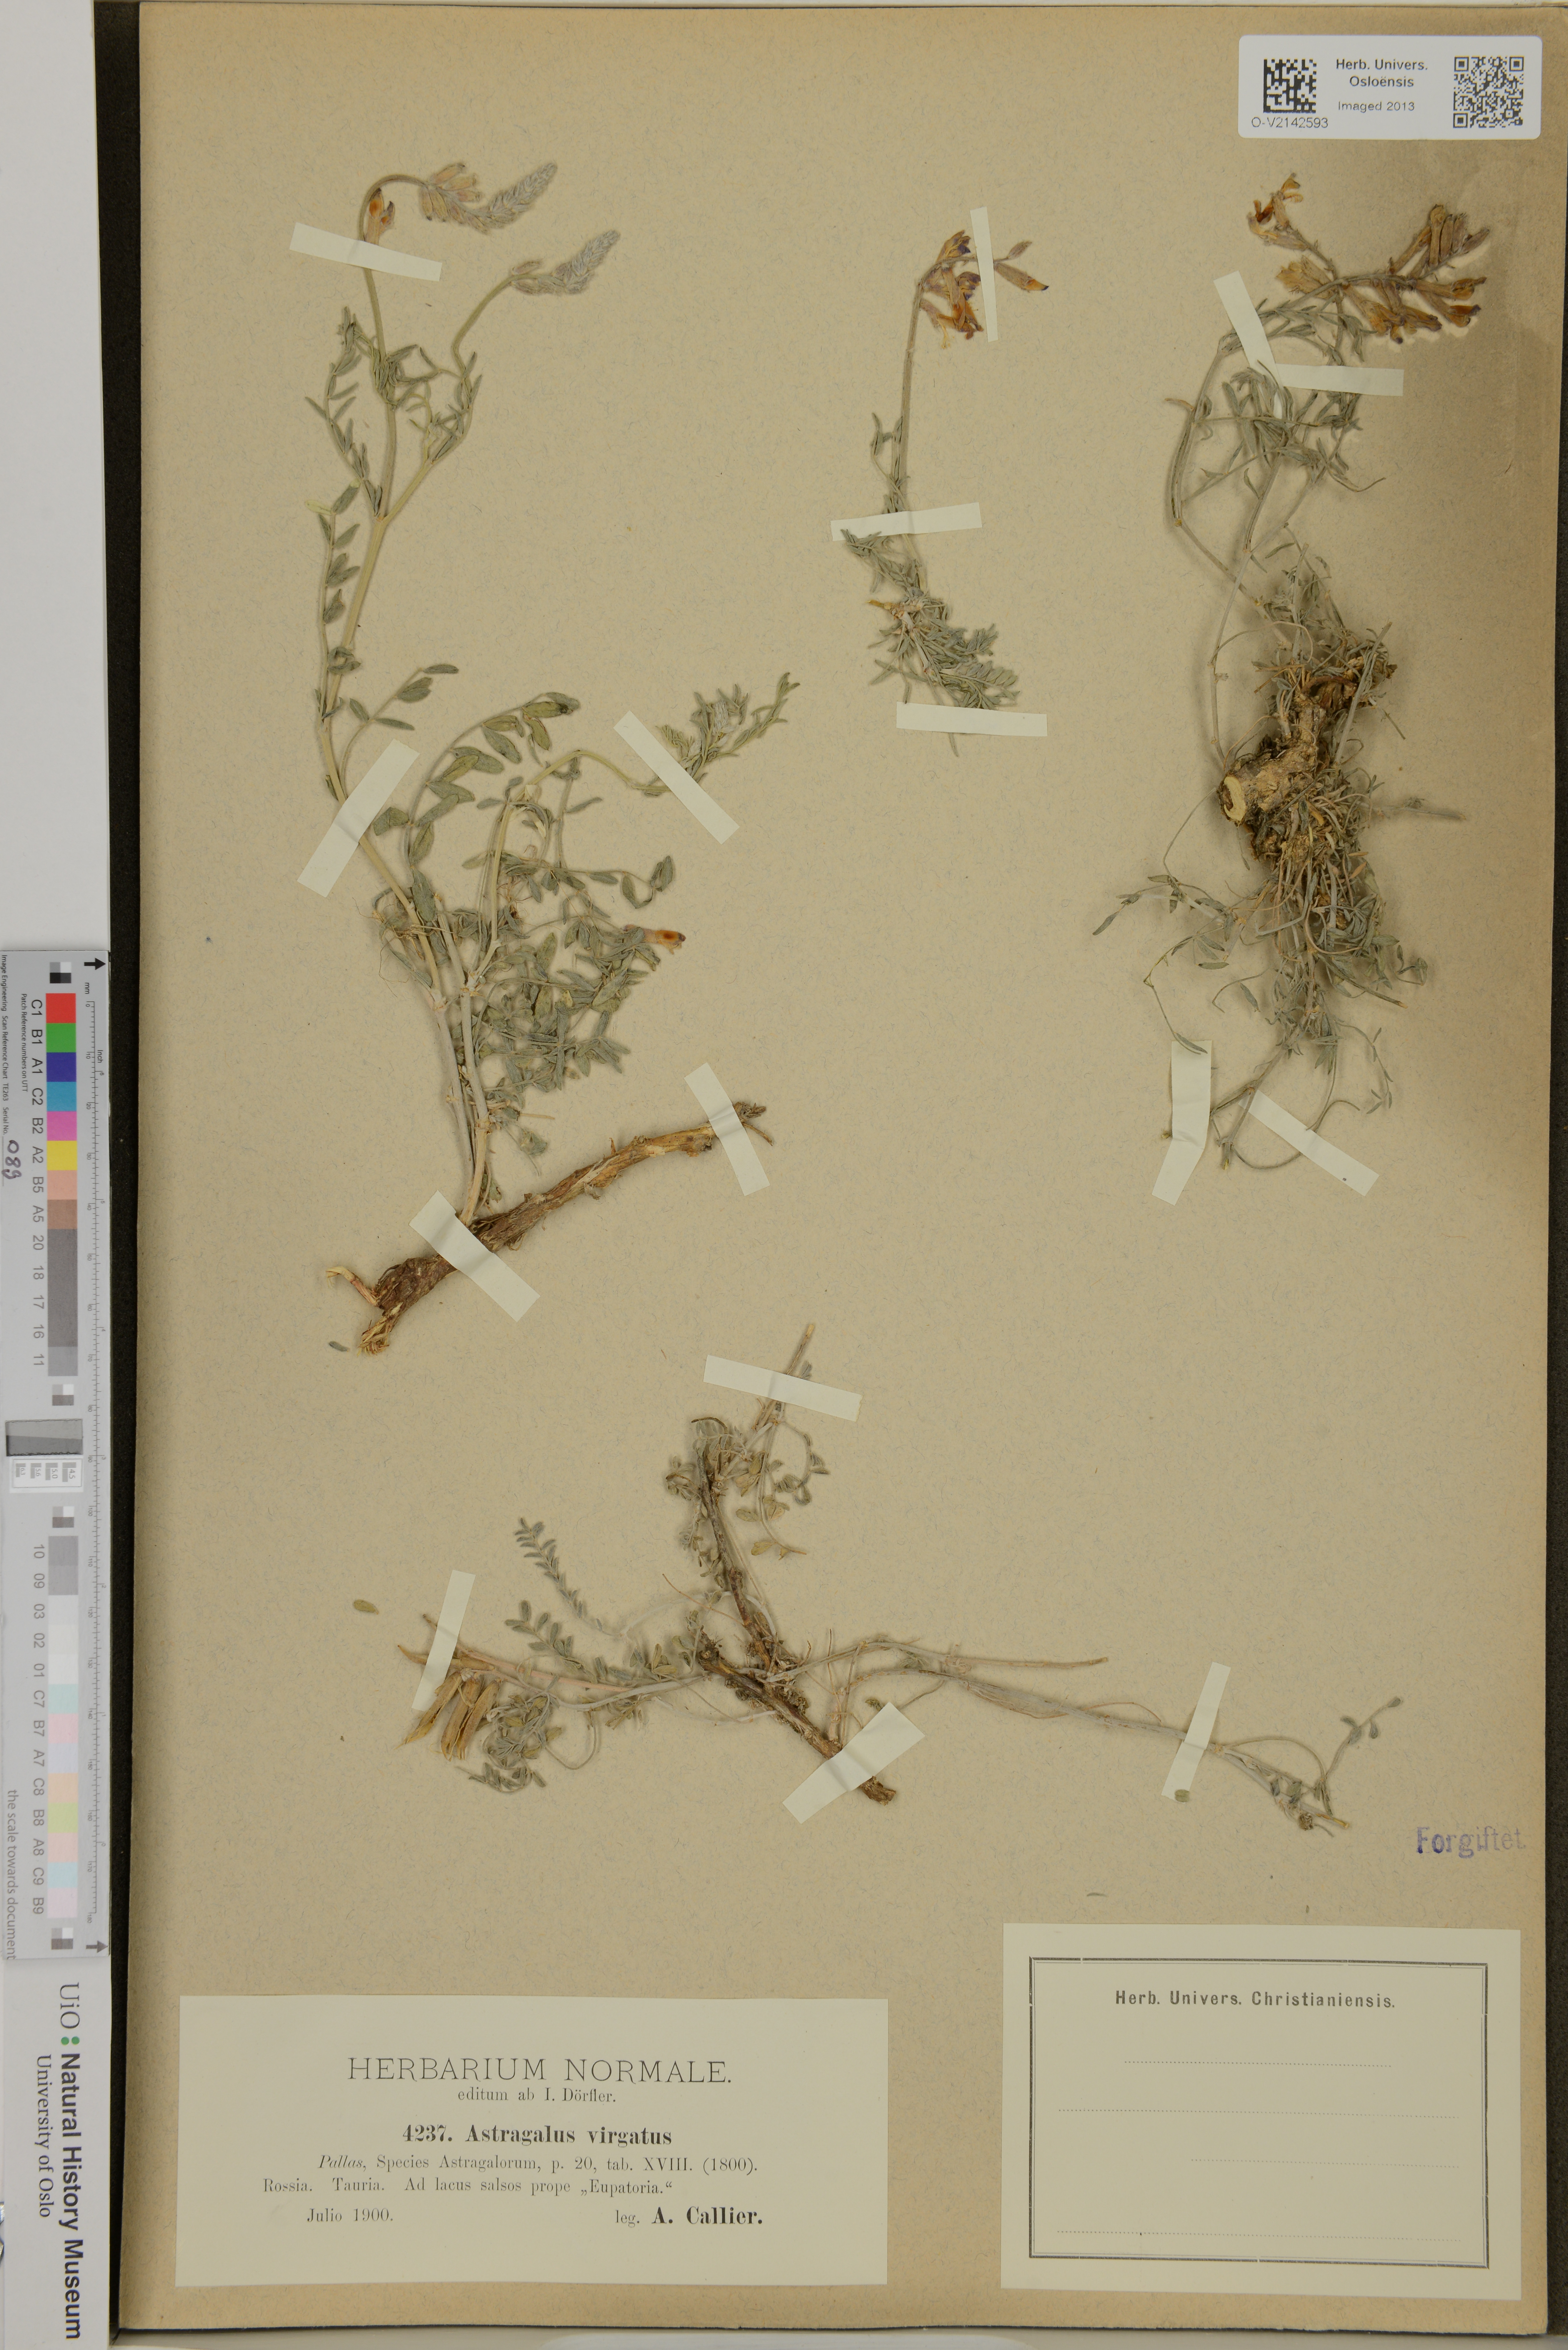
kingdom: Plantae
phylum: Tracheophyta
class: Magnoliopsida
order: Fabales
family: Fabaceae
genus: Astragalus
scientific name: Astragalus
